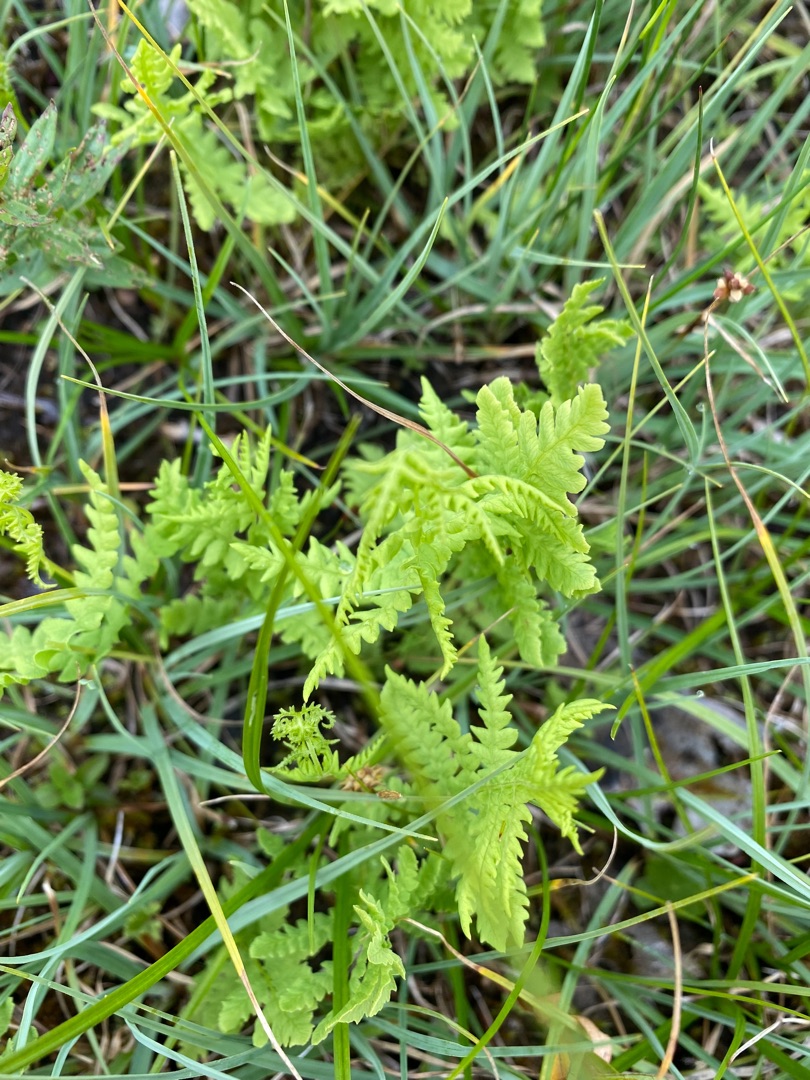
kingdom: Plantae
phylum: Tracheophyta
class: Polypodiopsida
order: Polypodiales
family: Thelypteridaceae
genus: Thelypteris
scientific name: Thelypteris palustris
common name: Kærmangeløv
